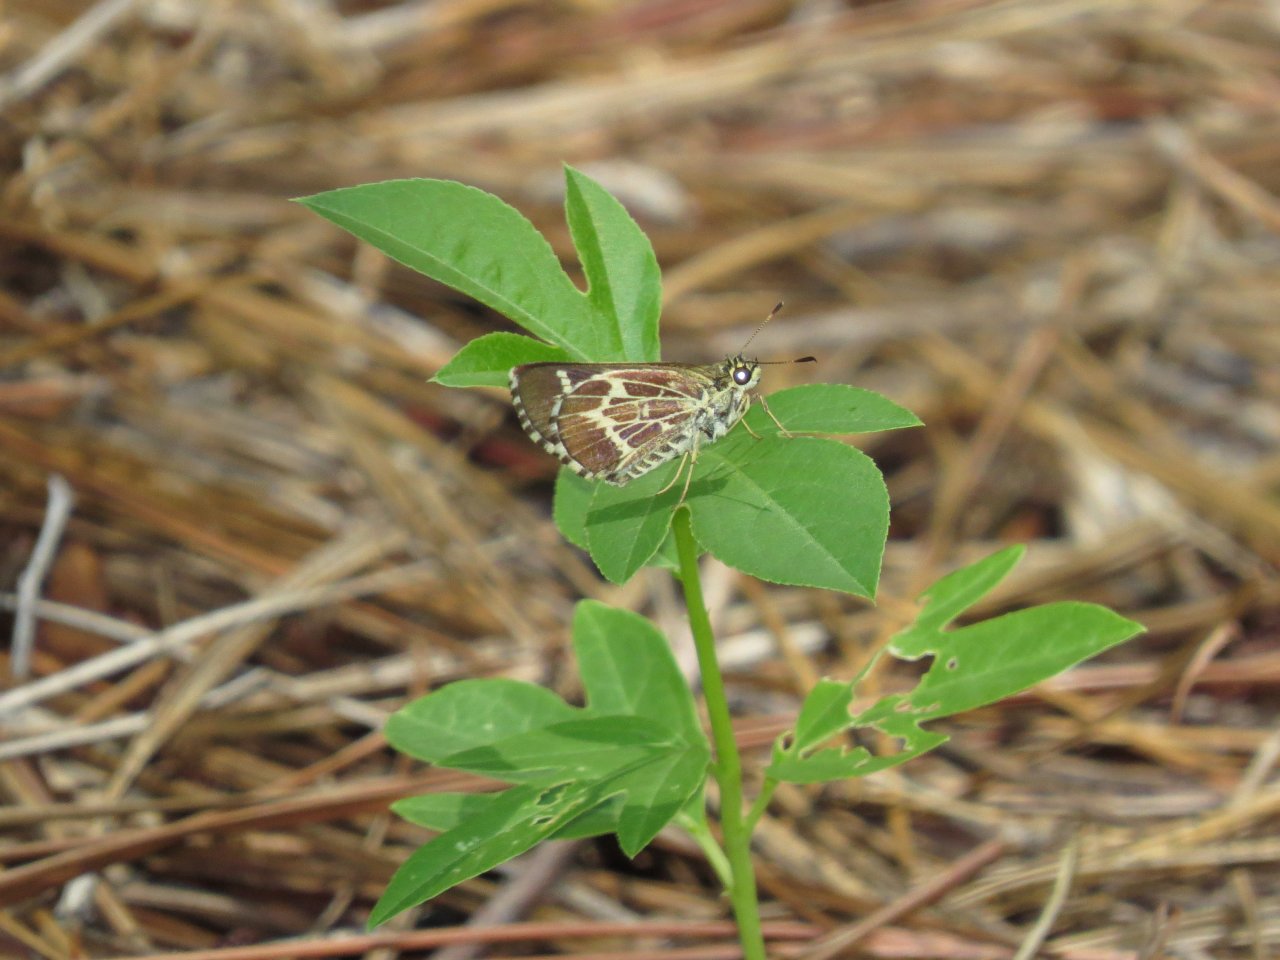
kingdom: Animalia
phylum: Arthropoda
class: Insecta
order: Lepidoptera
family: Hesperiidae
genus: Mastor
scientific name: Mastor aesculapius
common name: Lace-winged Roadside-Skipper
